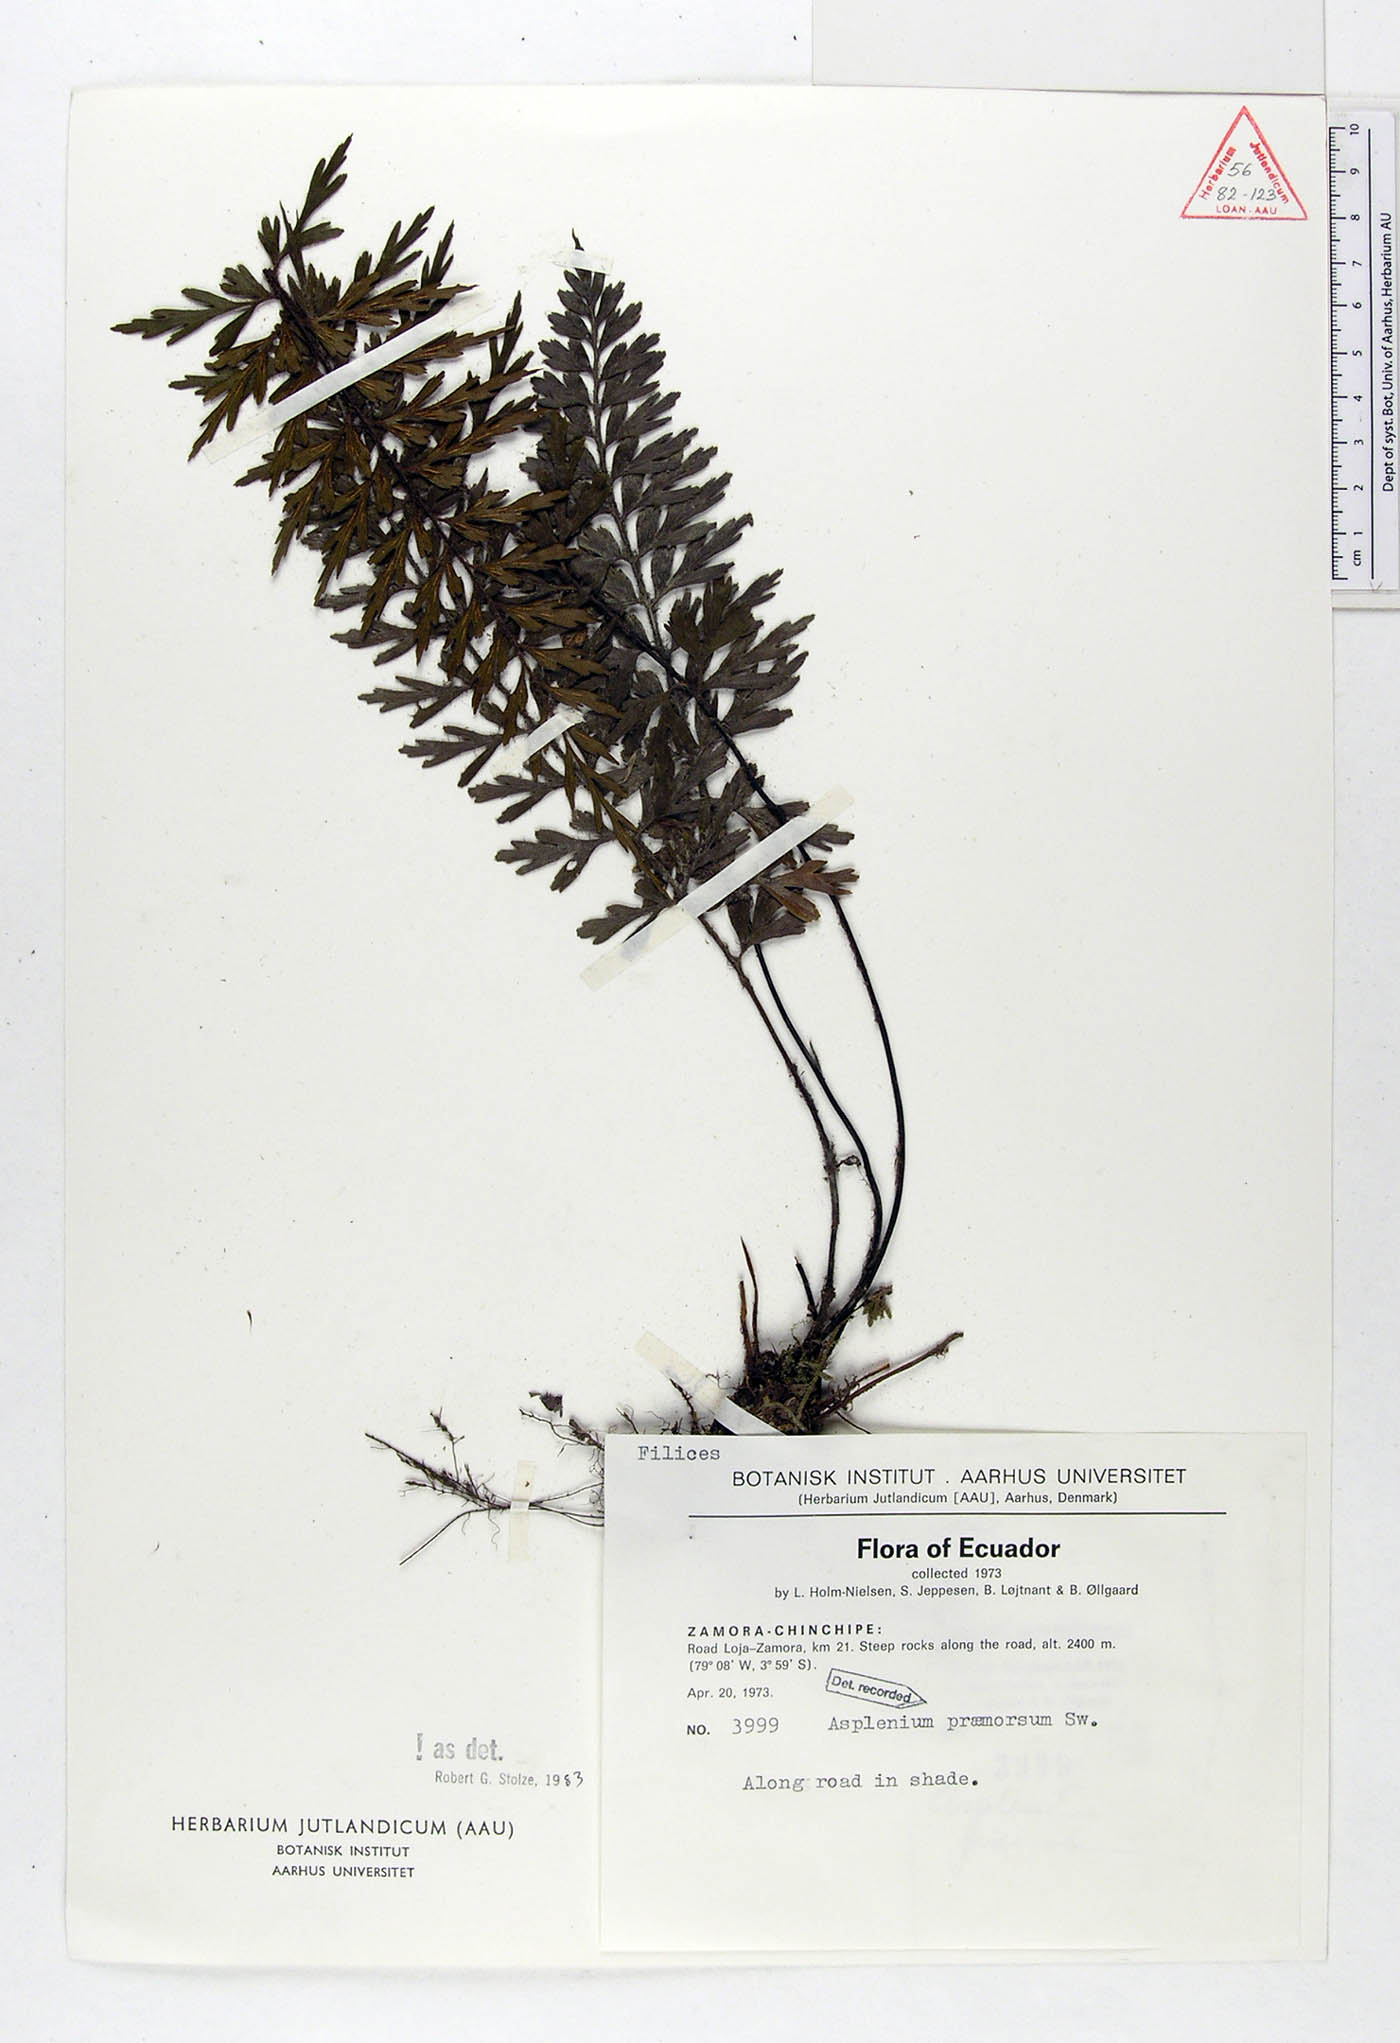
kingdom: Plantae
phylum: Tracheophyta
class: Polypodiopsida
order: Polypodiales
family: Aspleniaceae
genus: Asplenium
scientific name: Asplenium praemorsum
